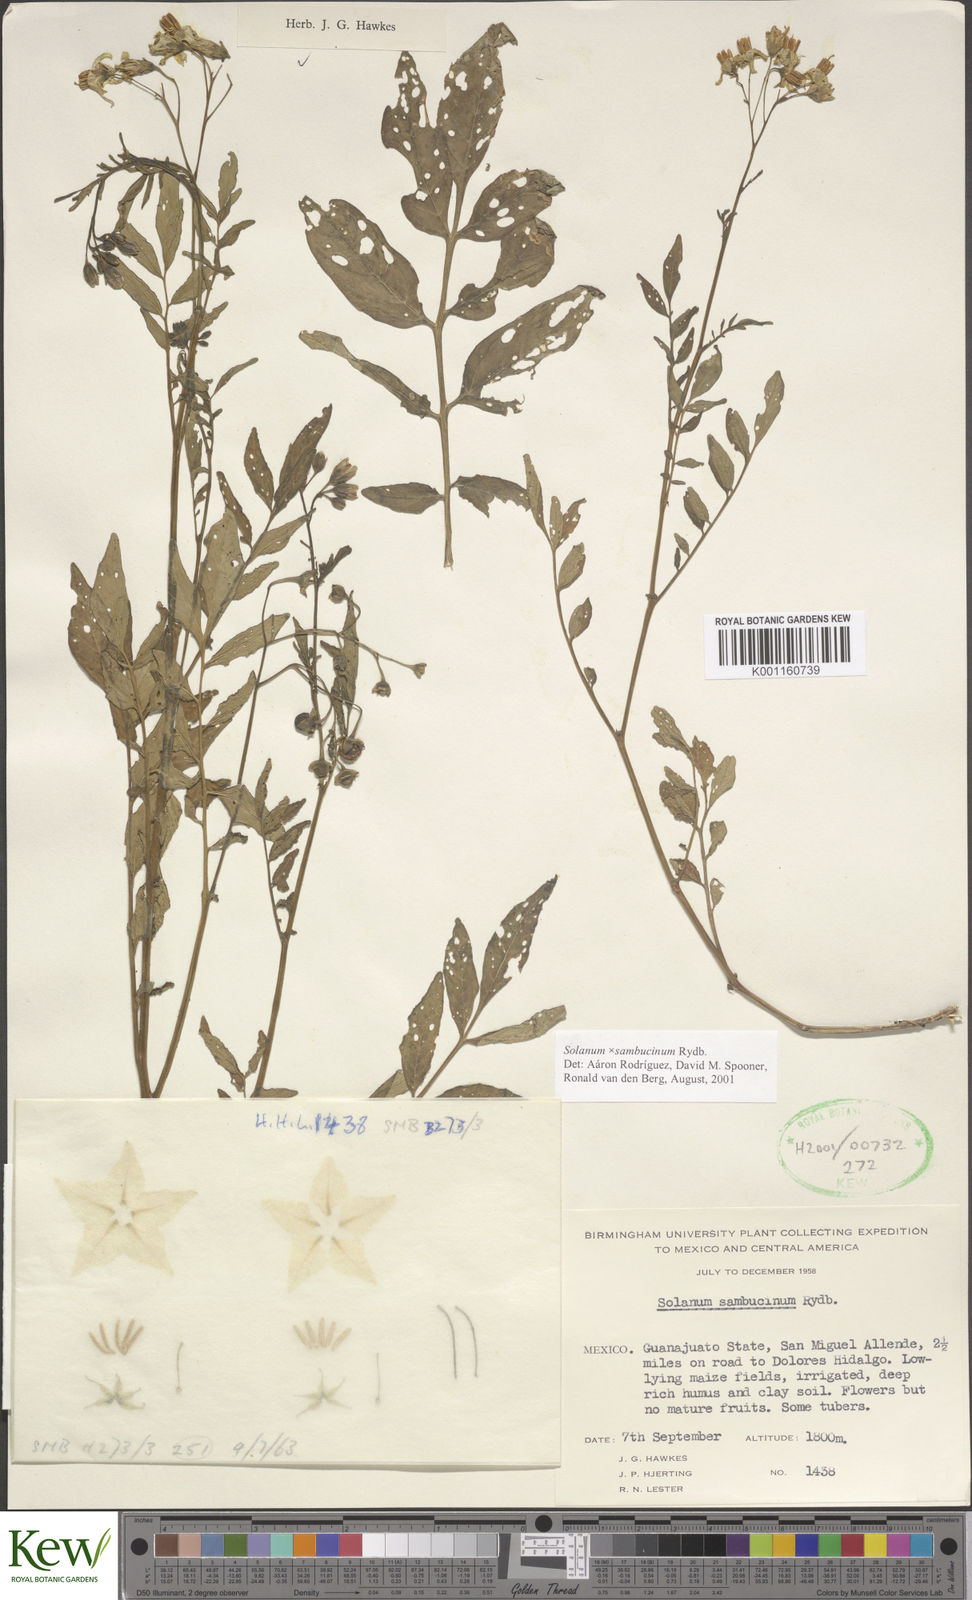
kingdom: Plantae
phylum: Tracheophyta
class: Magnoliopsida
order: Solanales
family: Solanaceae
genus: Solanum
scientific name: Solanum sambucinum
